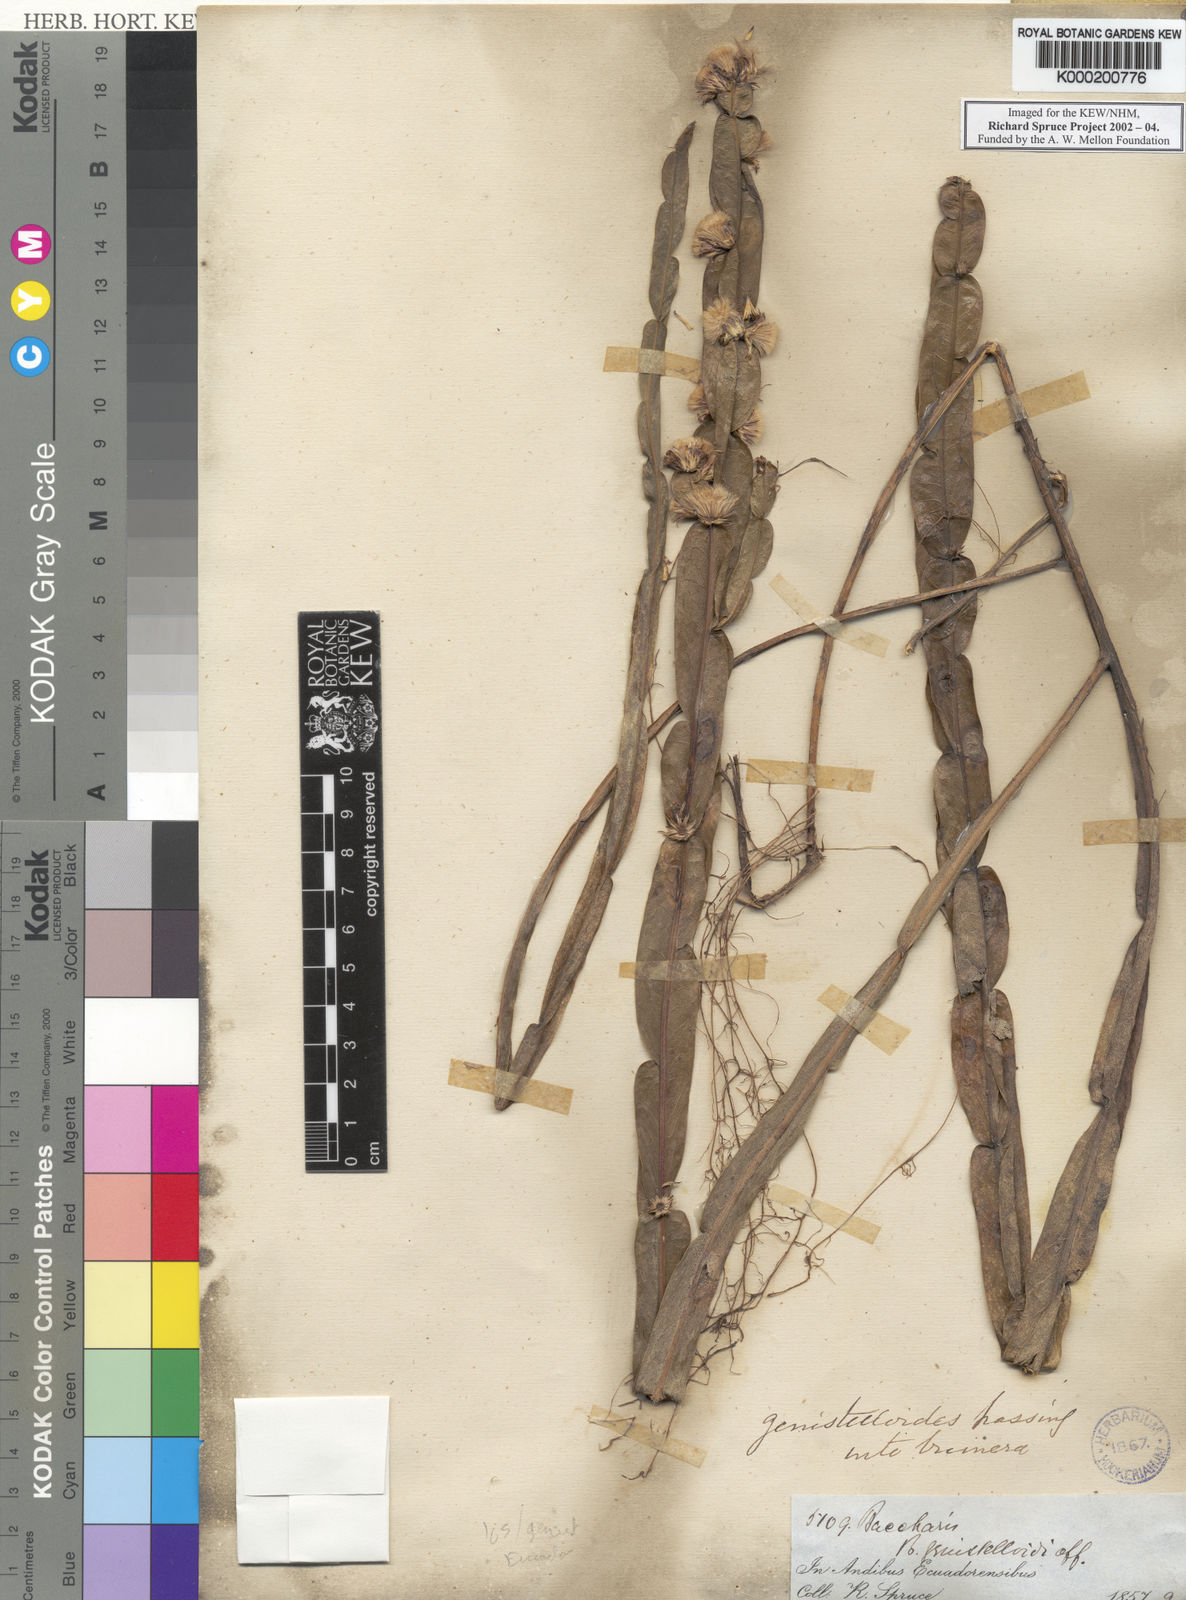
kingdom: Plantae
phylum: Tracheophyta
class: Magnoliopsida
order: Asterales
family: Asteraceae
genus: Baccharis
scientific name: Baccharis genistelloides
